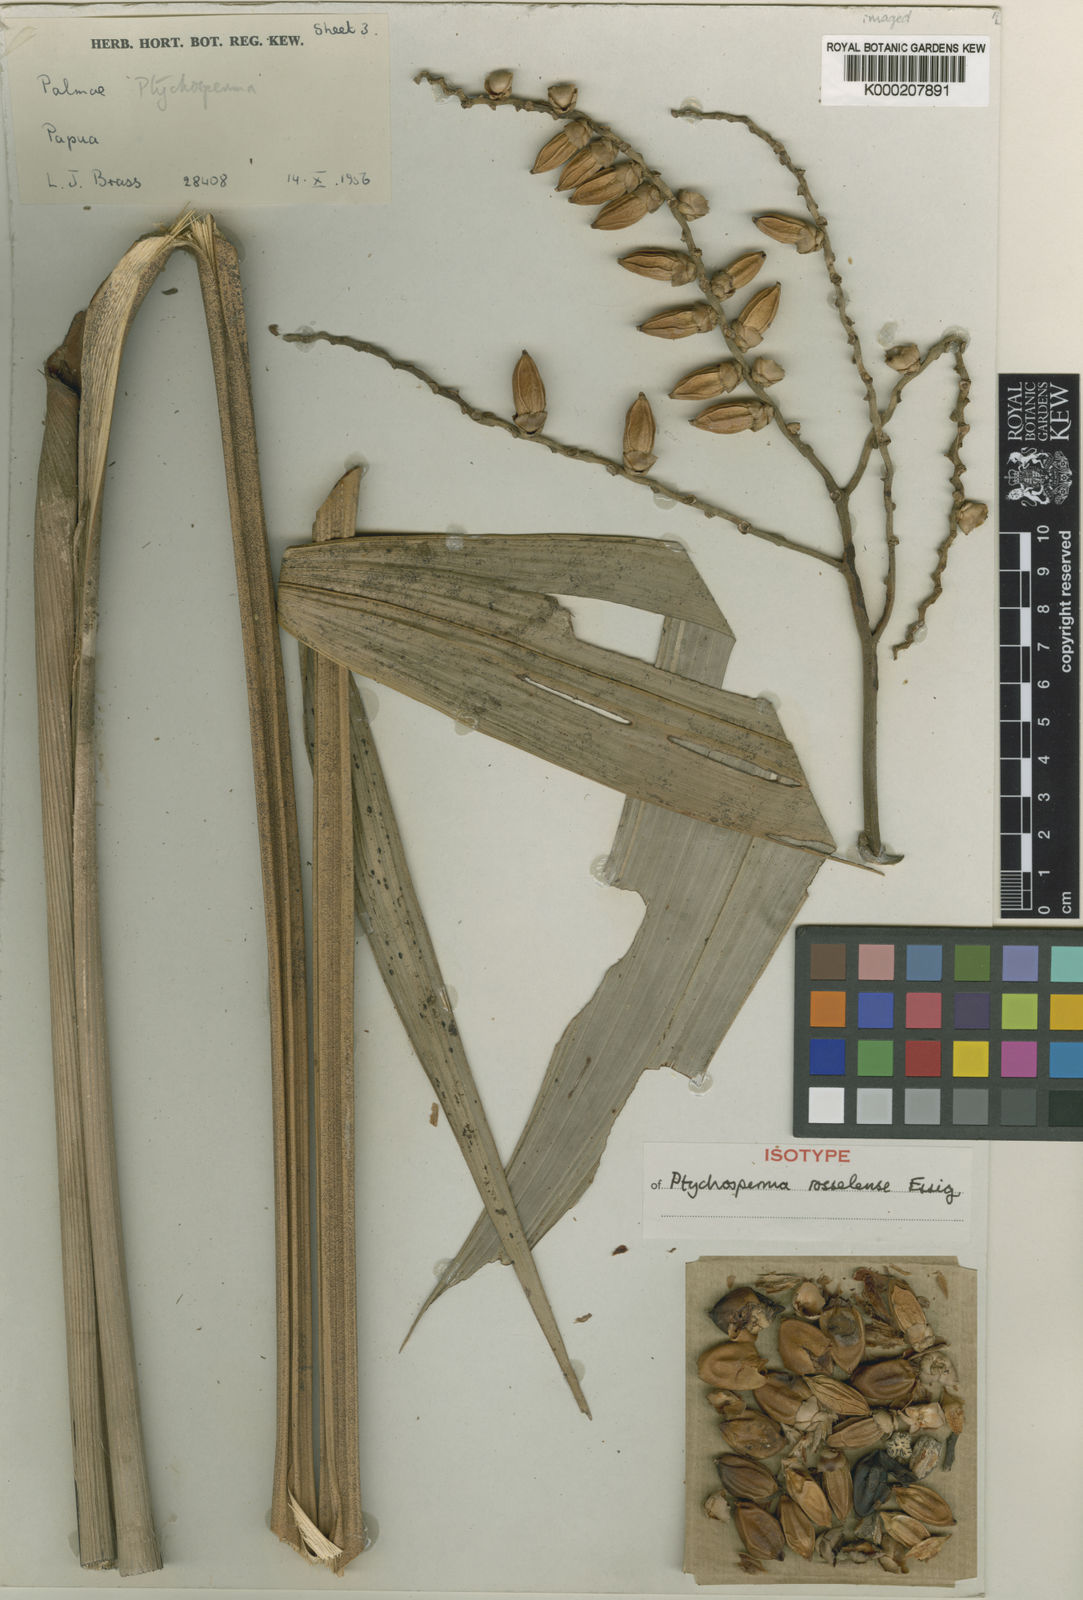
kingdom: Plantae
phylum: Tracheophyta
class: Liliopsida
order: Arecales
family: Arecaceae
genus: Ptychosperma
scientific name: Ptychosperma rosselense
